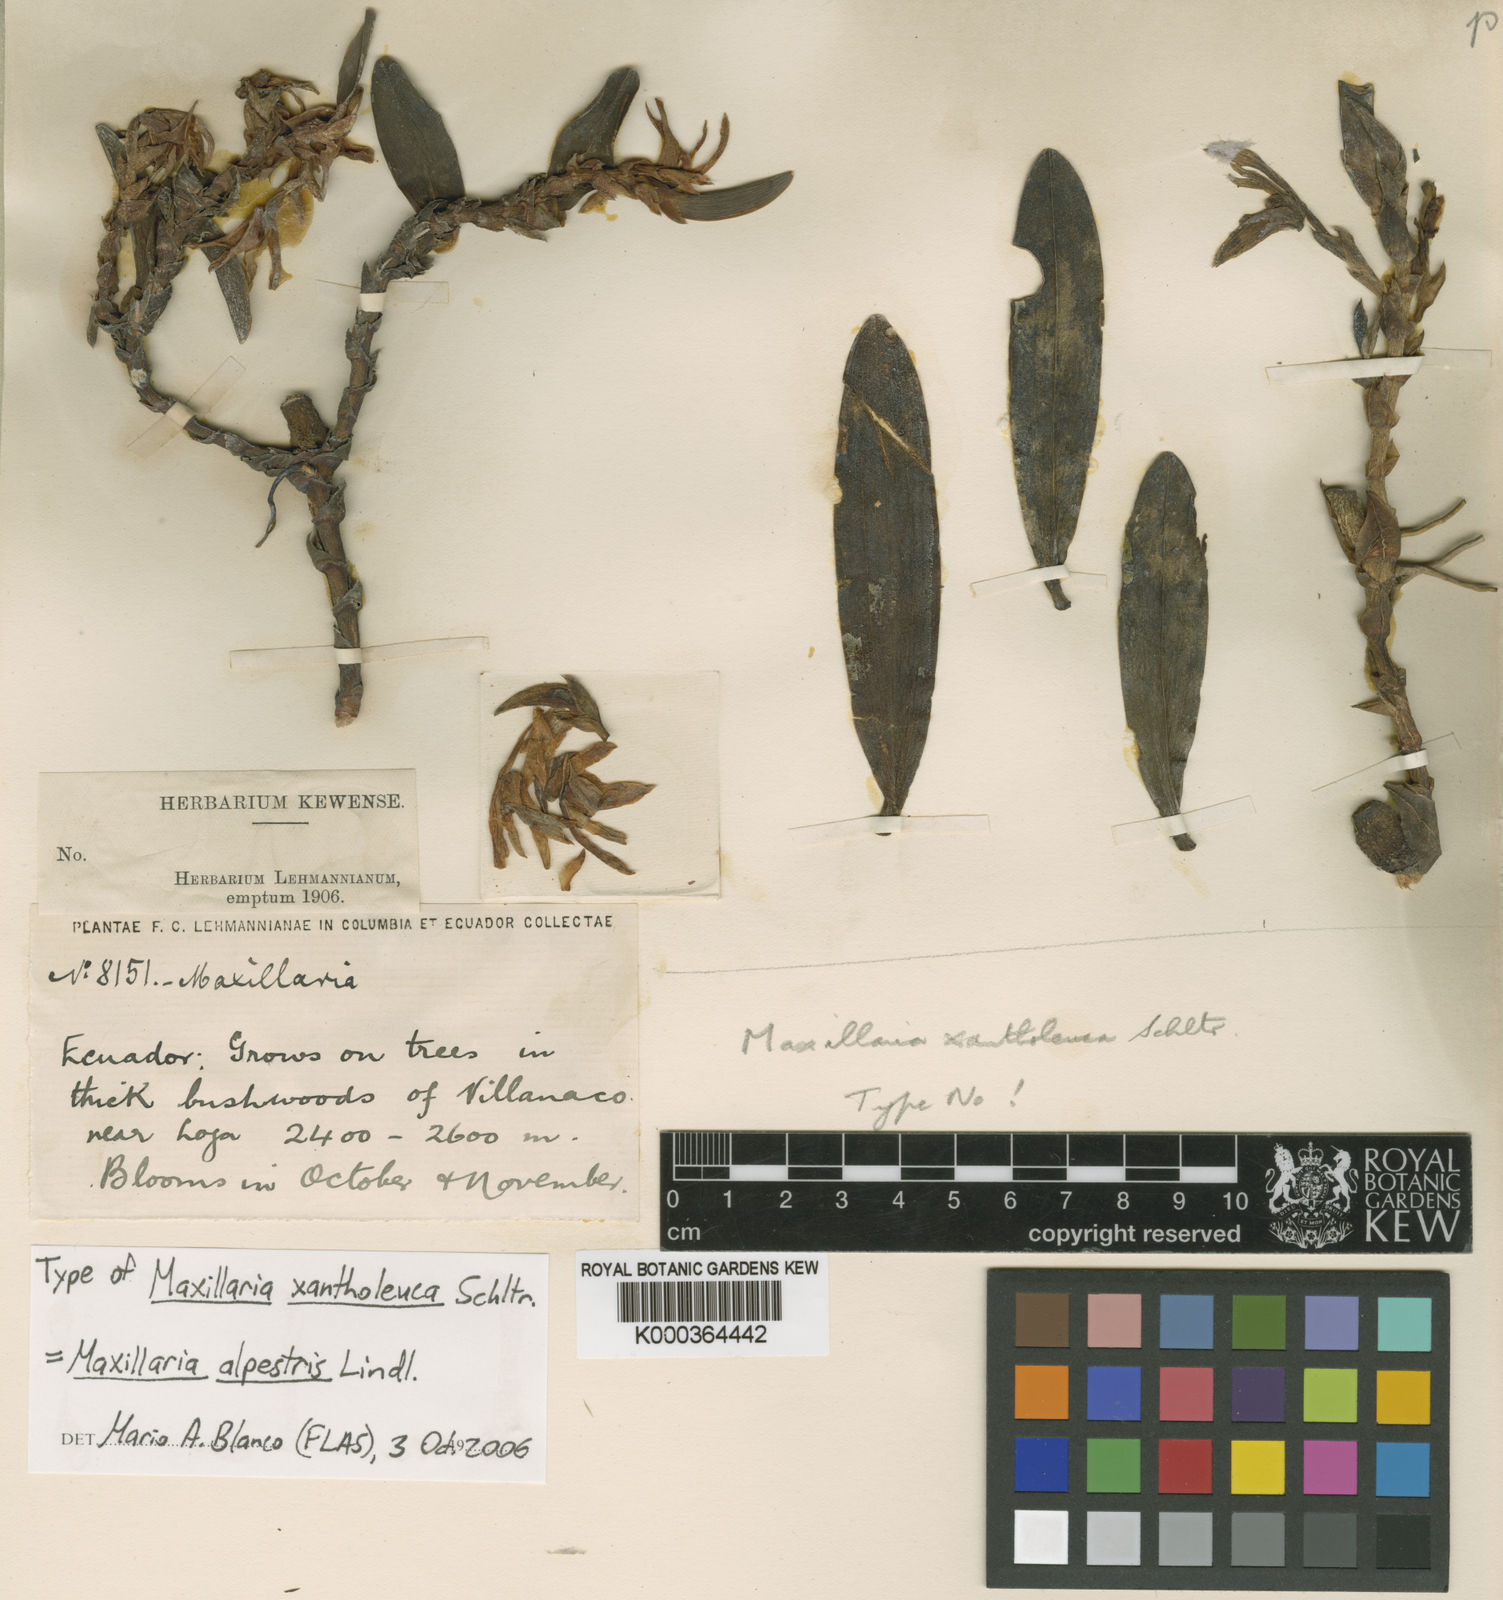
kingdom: Plantae
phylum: Tracheophyta
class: Liliopsida
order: Asparagales
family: Orchidaceae
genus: Maxillaria
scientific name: Maxillaria xantholeuca
